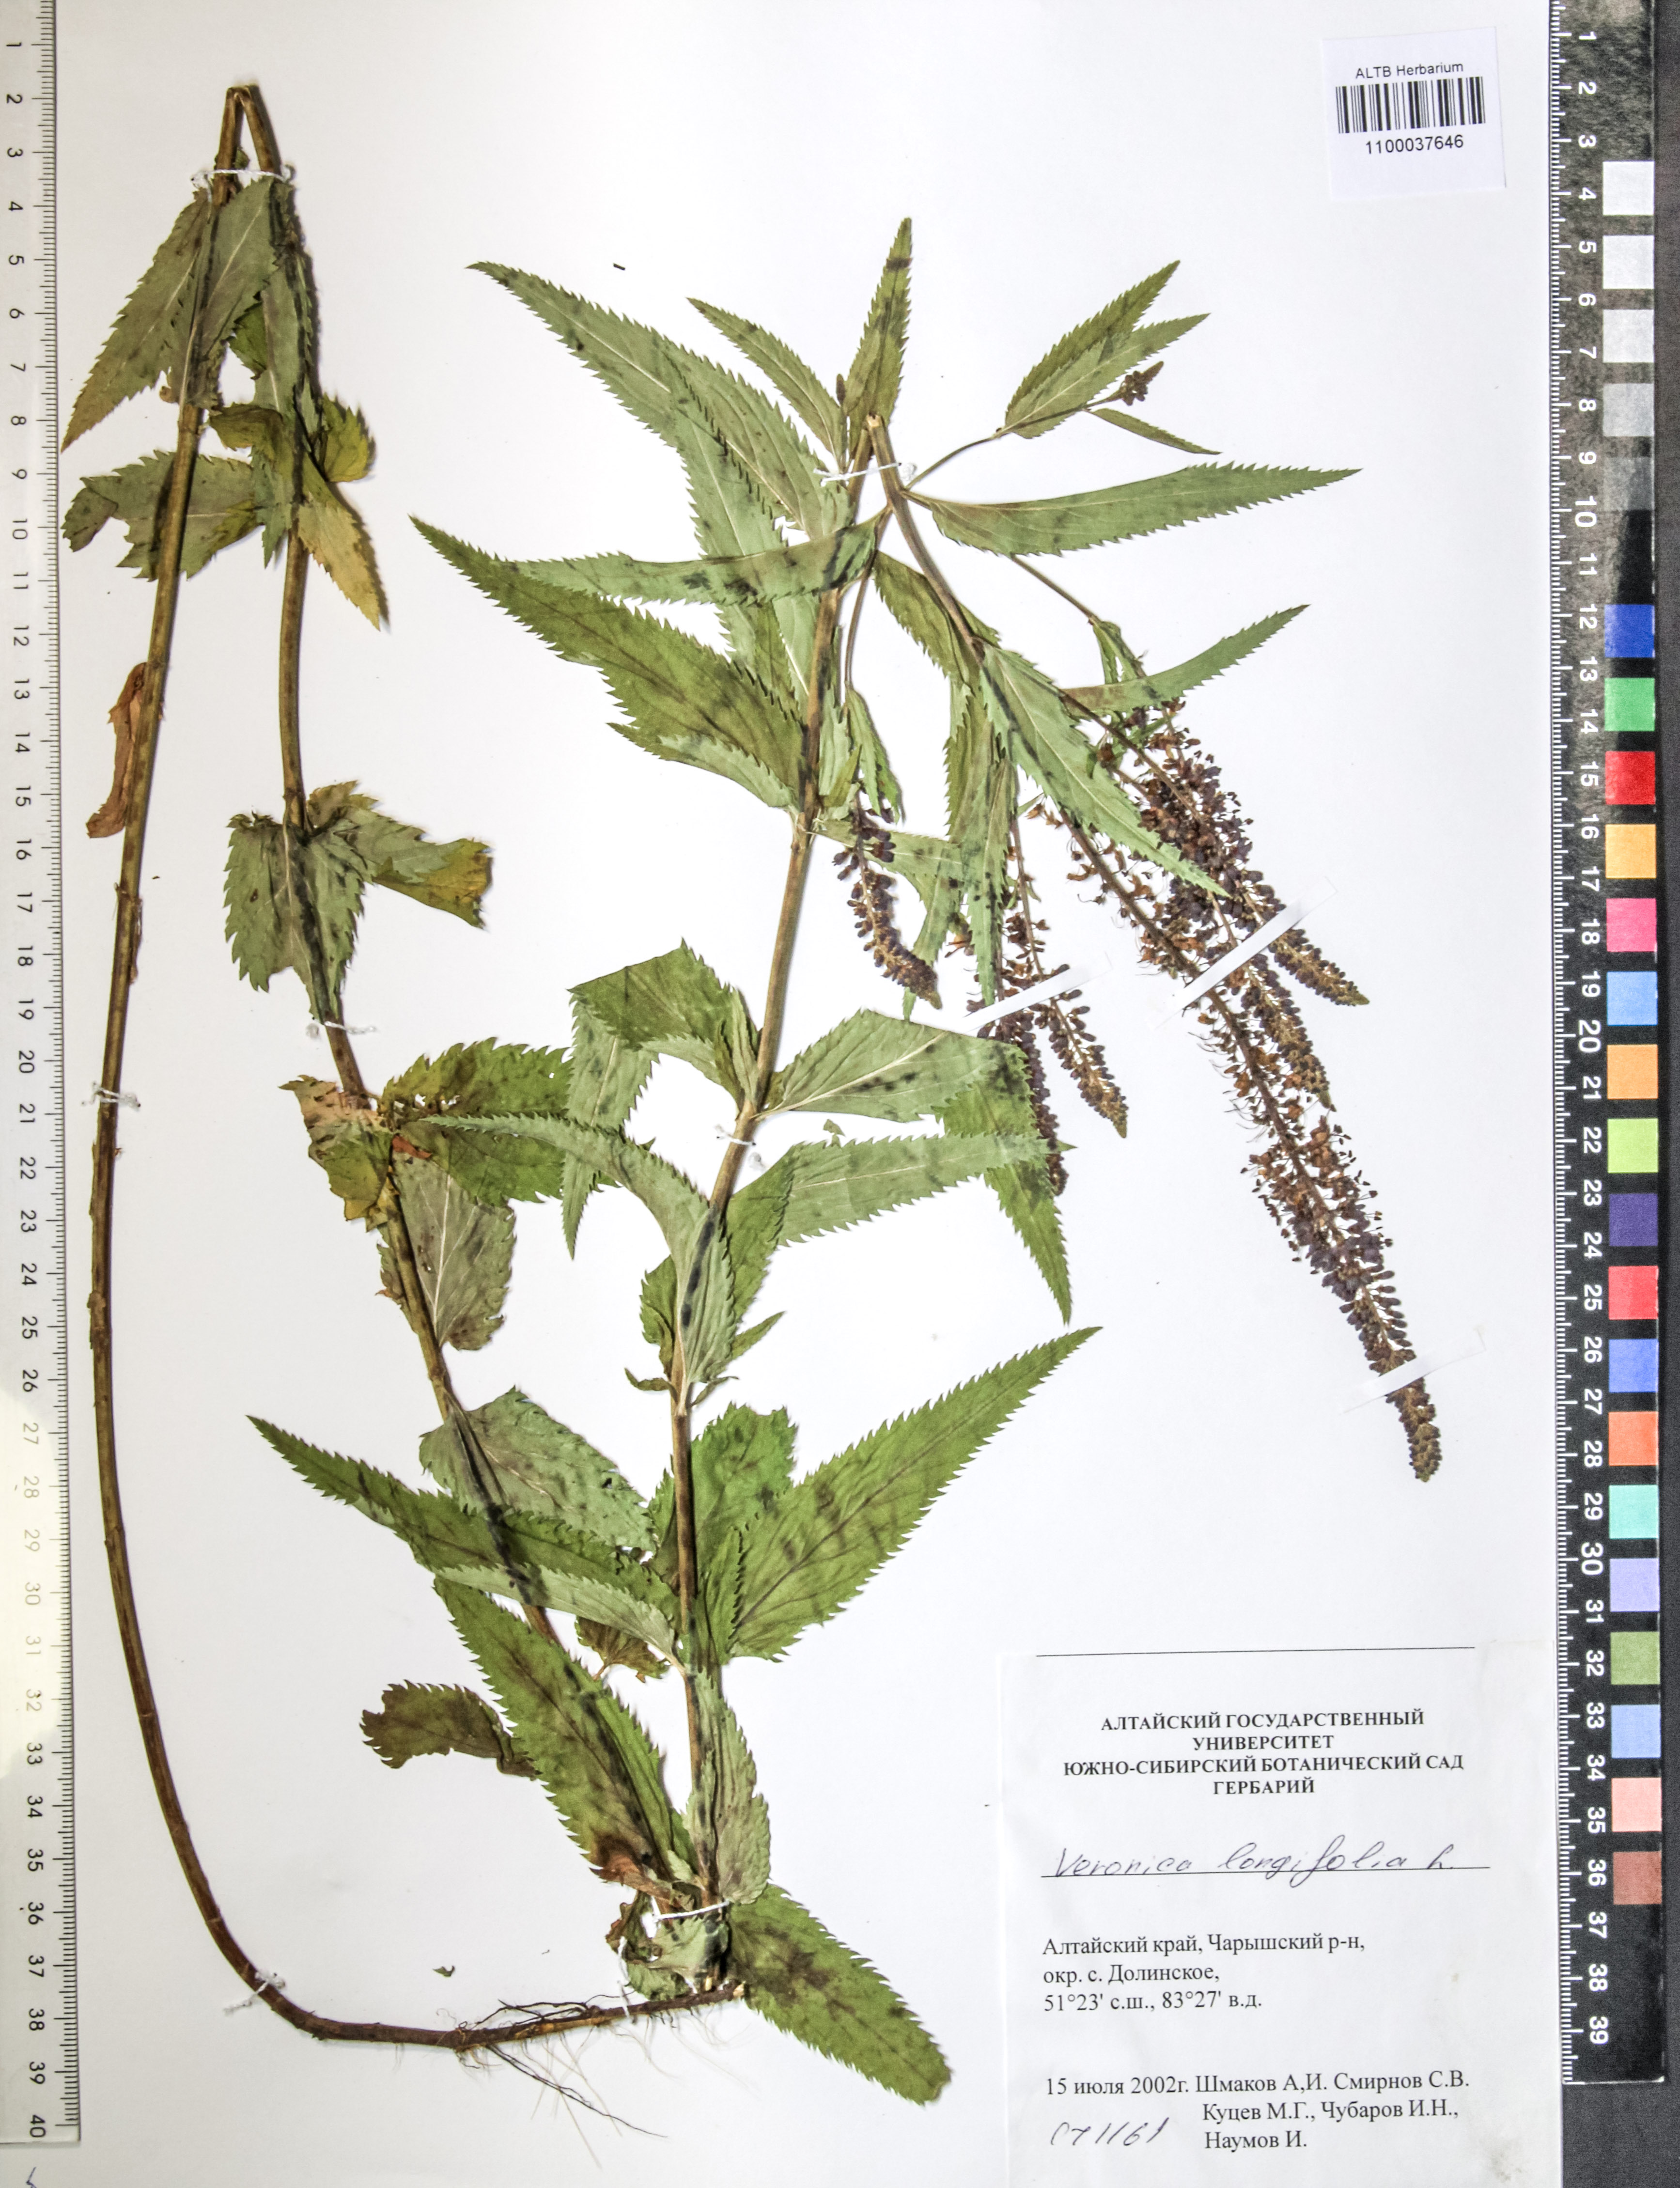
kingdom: Plantae
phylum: Tracheophyta
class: Magnoliopsida
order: Lamiales
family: Plantaginaceae
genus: Veronica
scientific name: Veronica longifolia
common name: Garden speedwell
